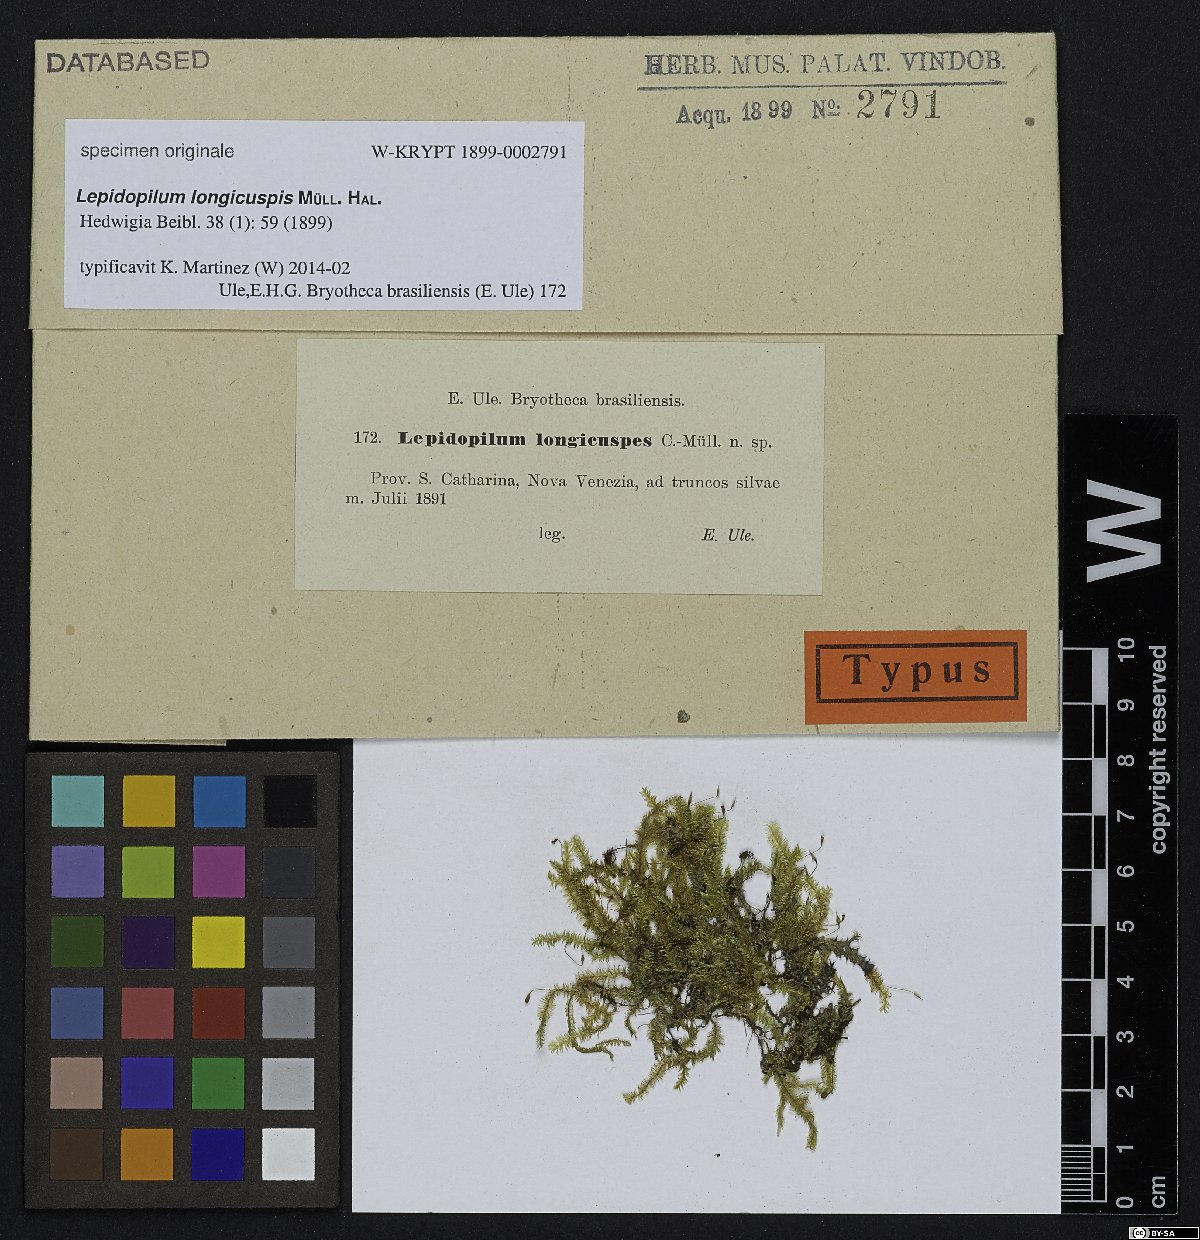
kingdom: Plantae
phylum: Bryophyta
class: Bryopsida
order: Hookeriales
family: Daltoniaceae
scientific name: Daltoniaceae
